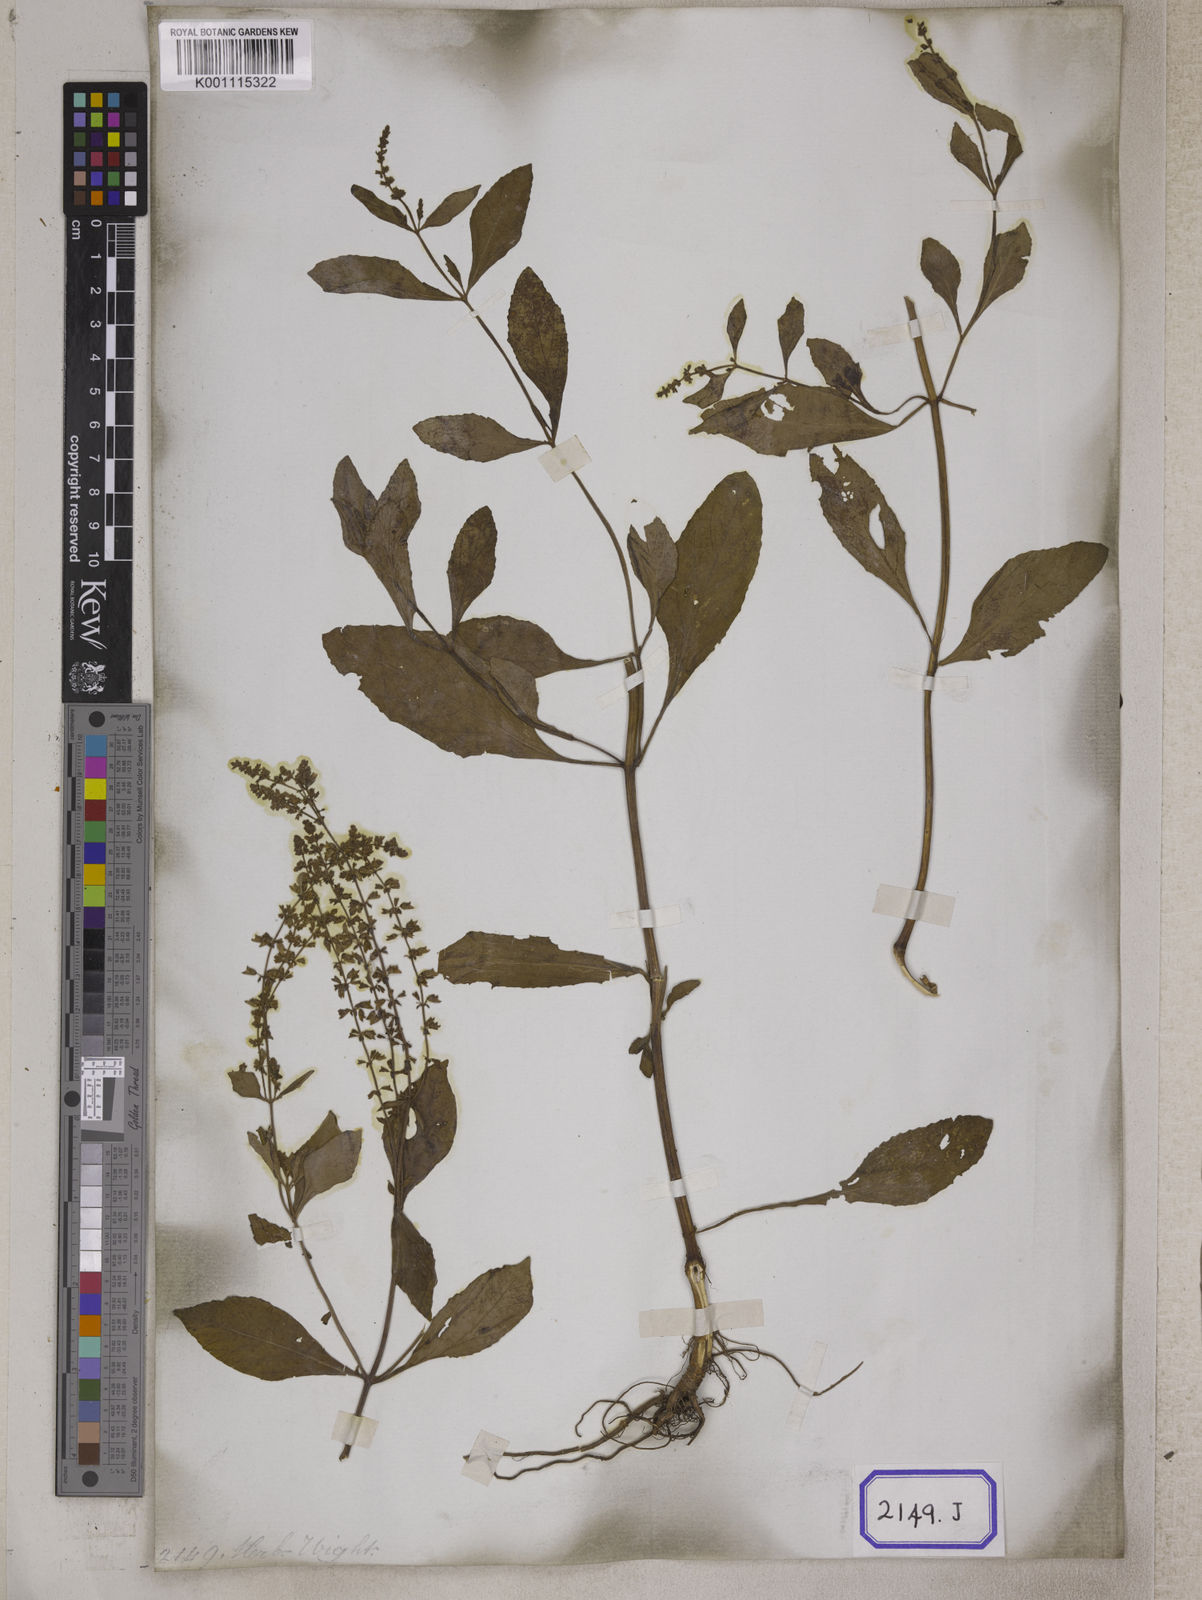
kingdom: Plantae
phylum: Tracheophyta
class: Magnoliopsida
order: Lamiales
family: Lamiaceae
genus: Salvia
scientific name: Salvia plebeia
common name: Australian sage
